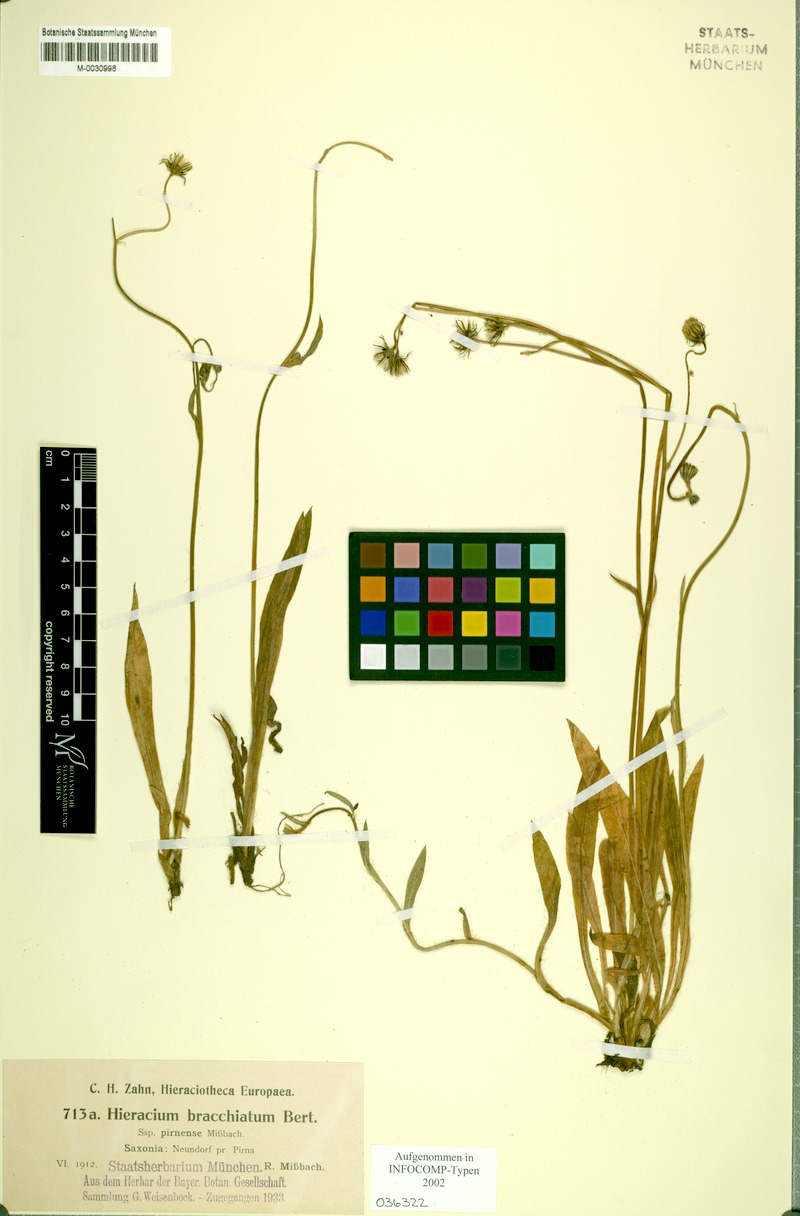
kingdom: Plantae
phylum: Tracheophyta
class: Magnoliopsida
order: Asterales
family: Asteraceae
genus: Pilosella
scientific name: Pilosella acutifolia
